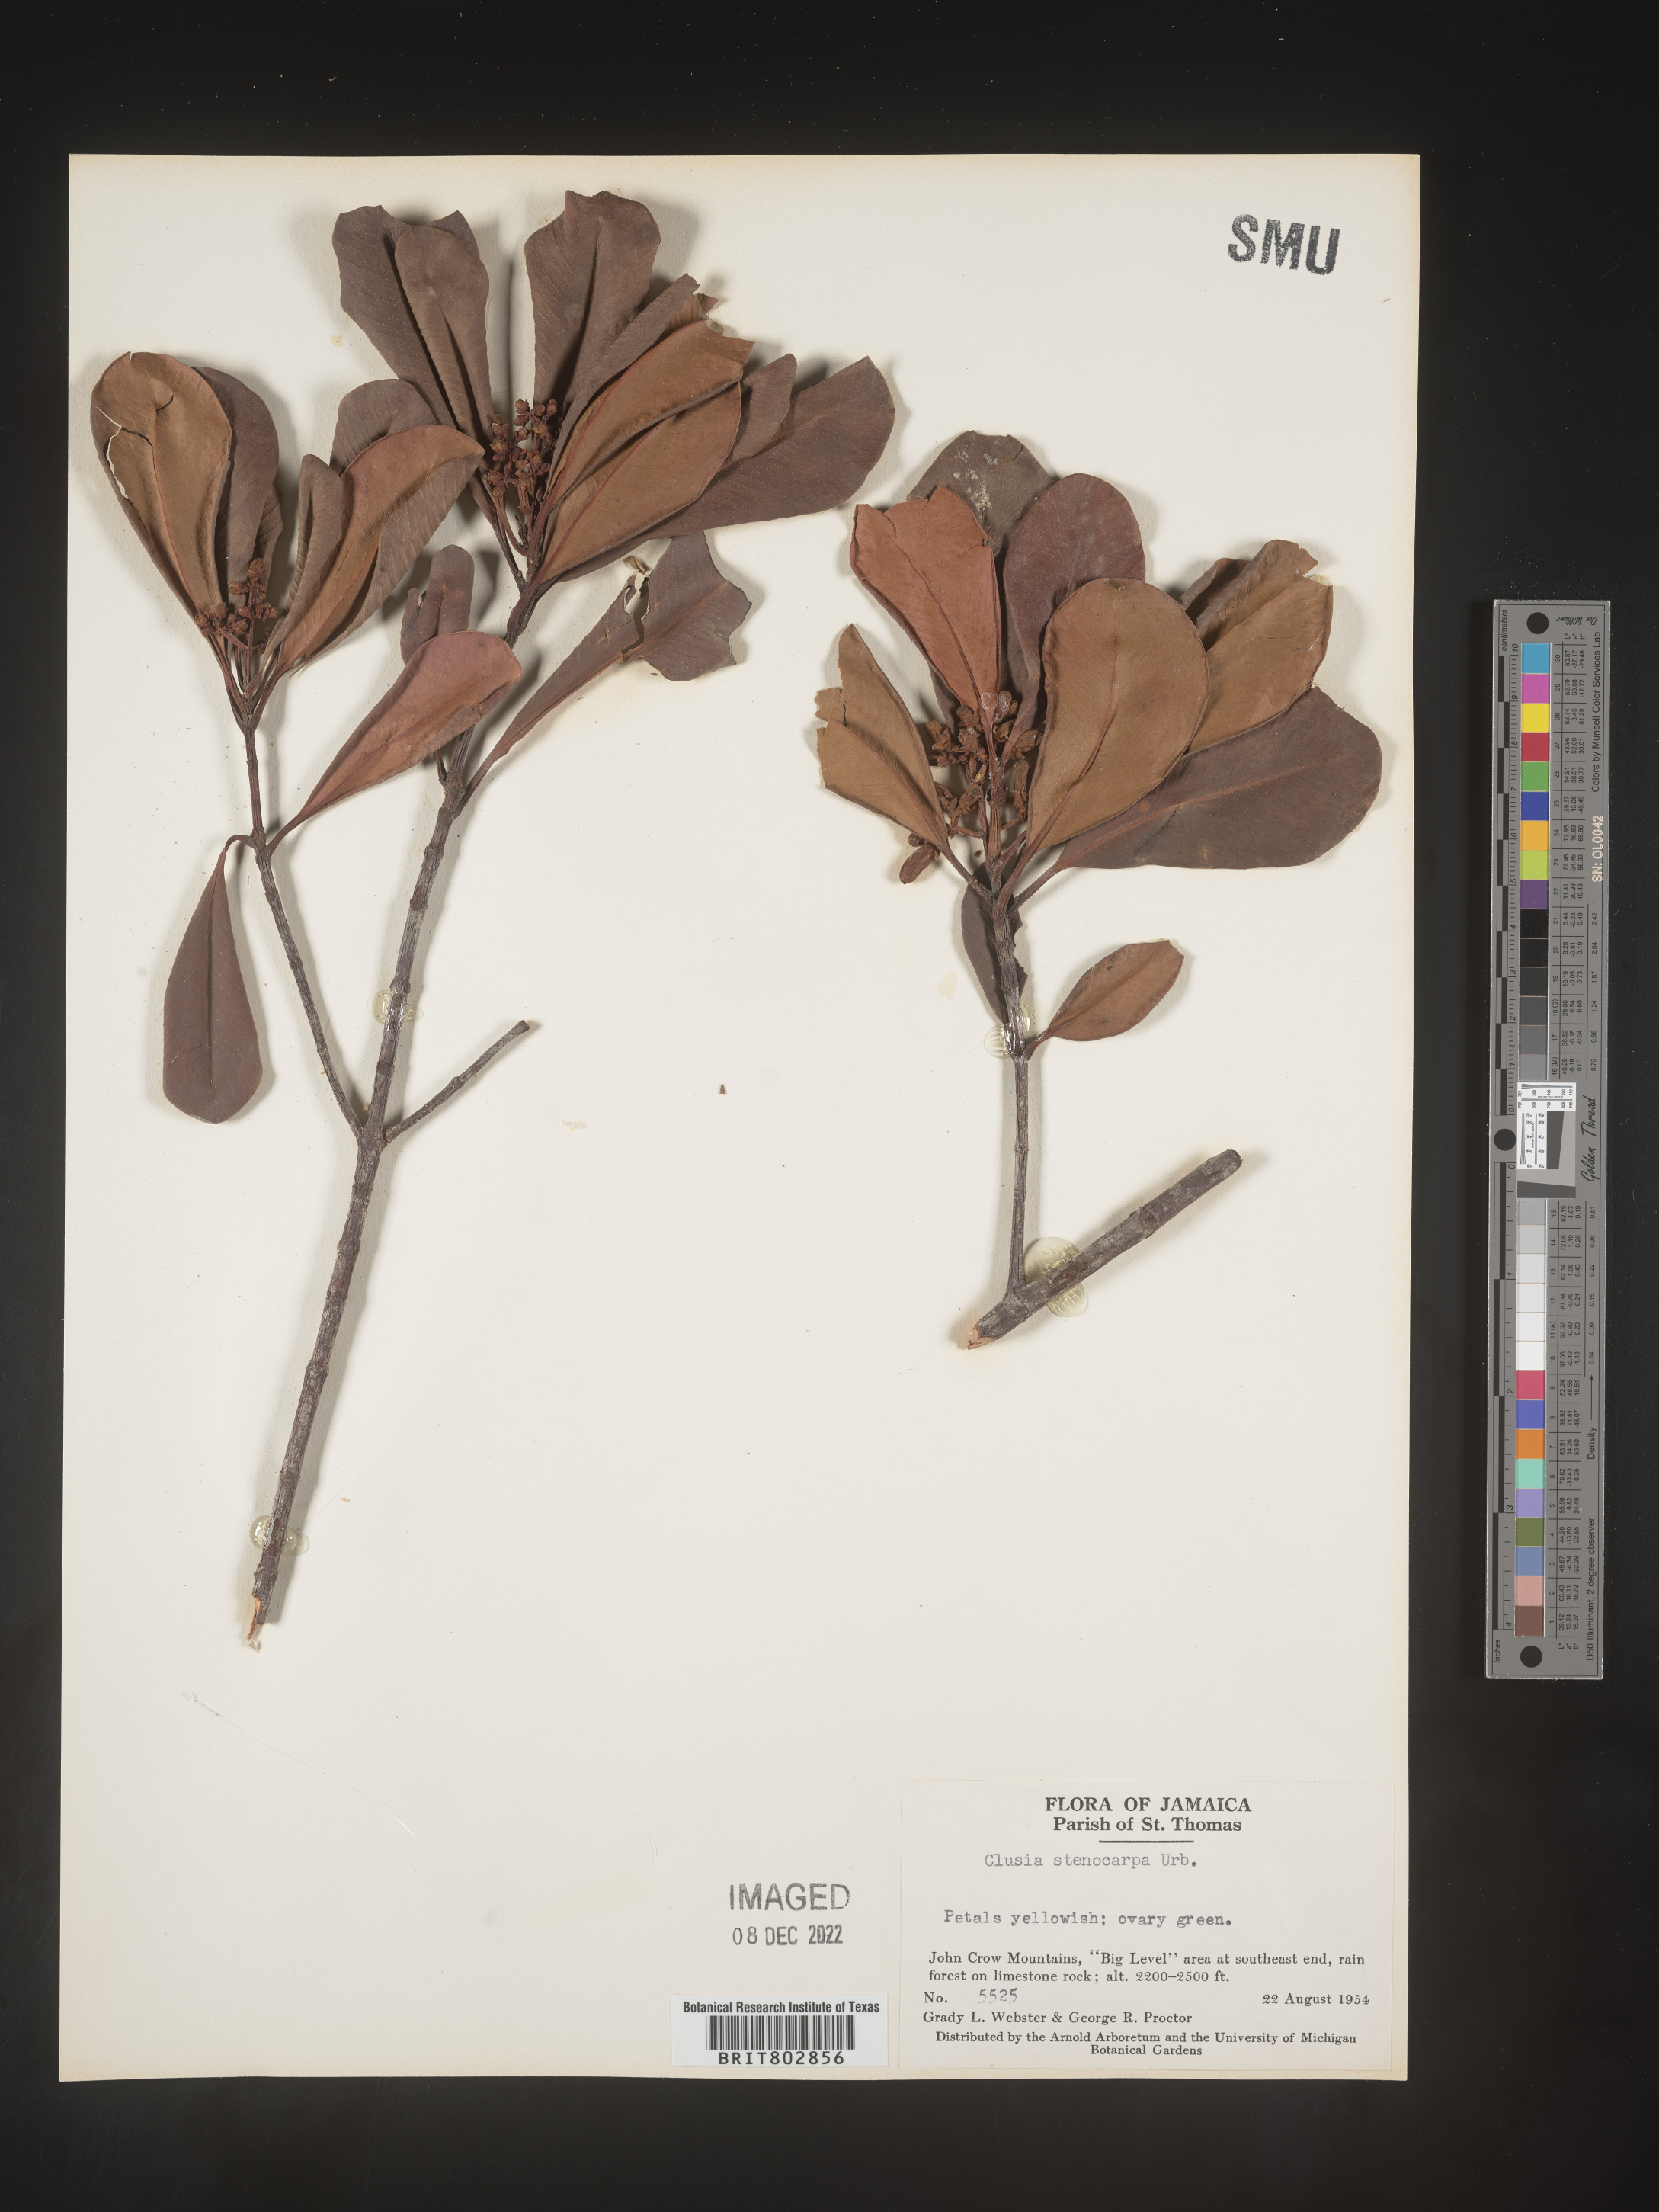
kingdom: Plantae
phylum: Tracheophyta
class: Magnoliopsida
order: Malpighiales
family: Clusiaceae
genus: Clusia
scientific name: Clusia
